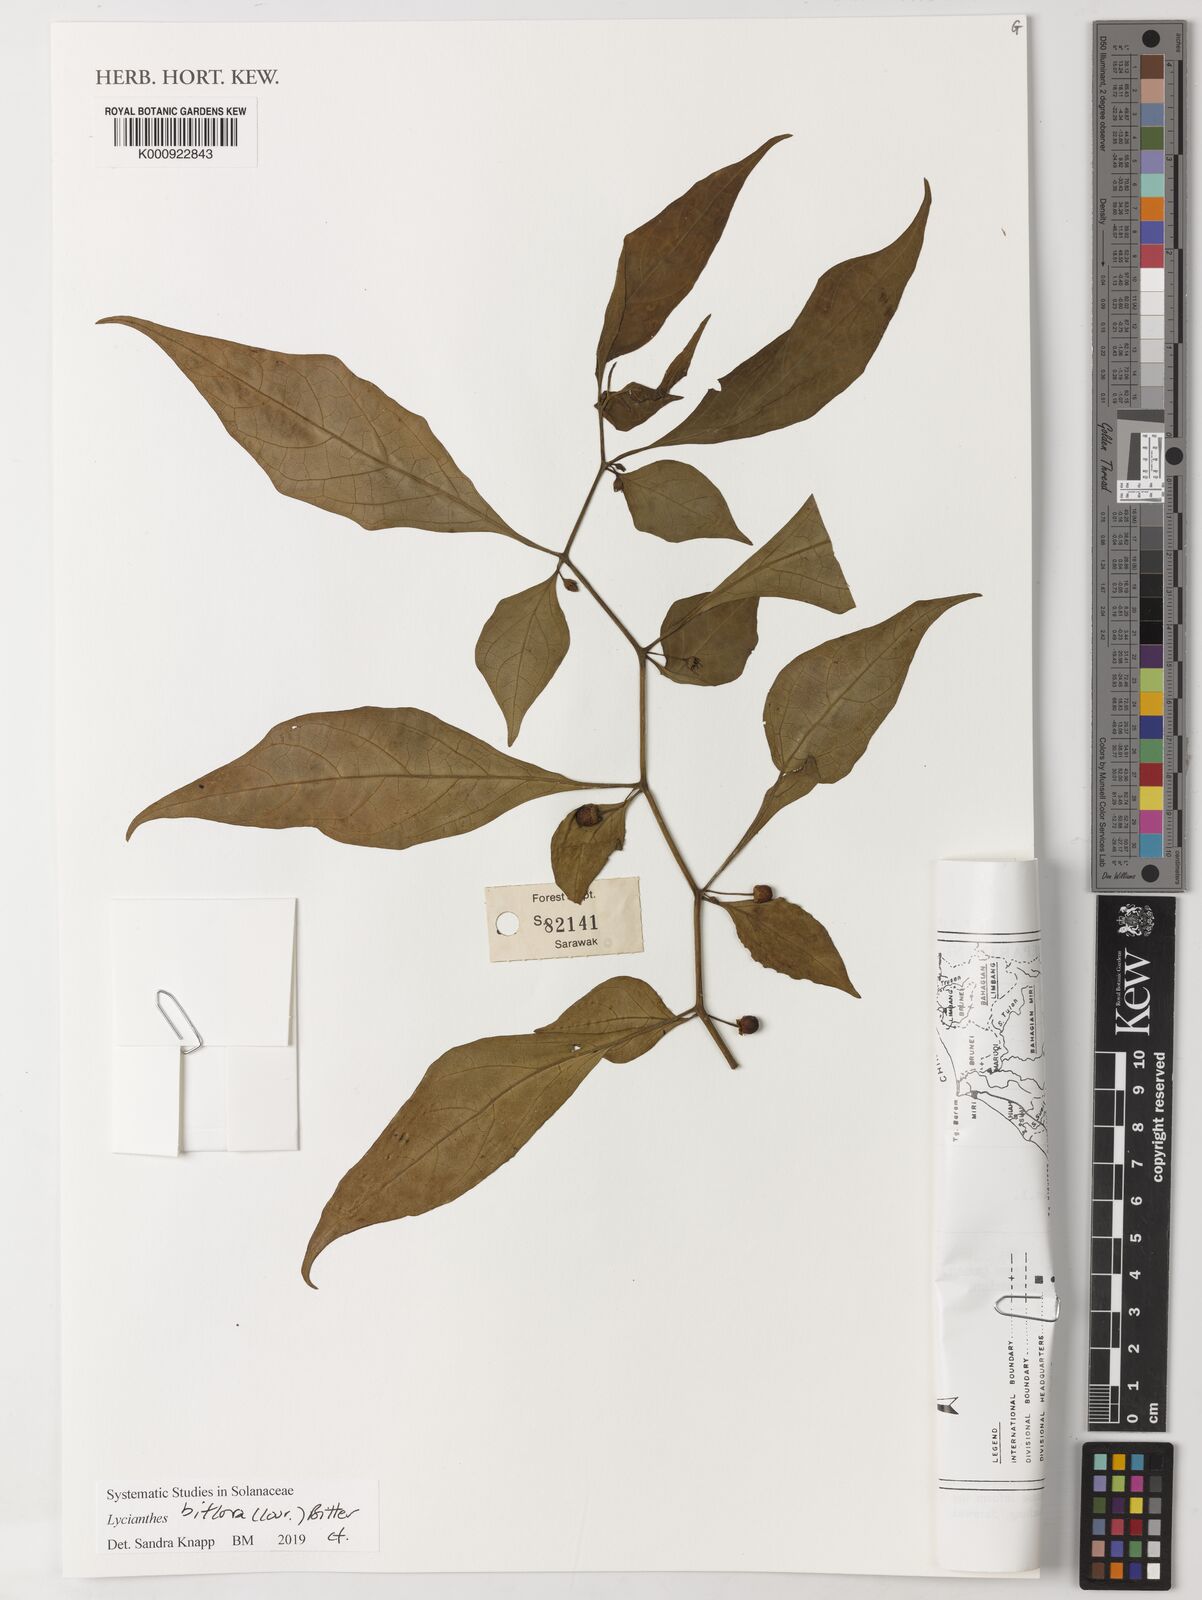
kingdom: Plantae
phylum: Tracheophyta
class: Magnoliopsida
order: Solanales
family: Solanaceae
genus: Lycianthes
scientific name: Lycianthes biflora
